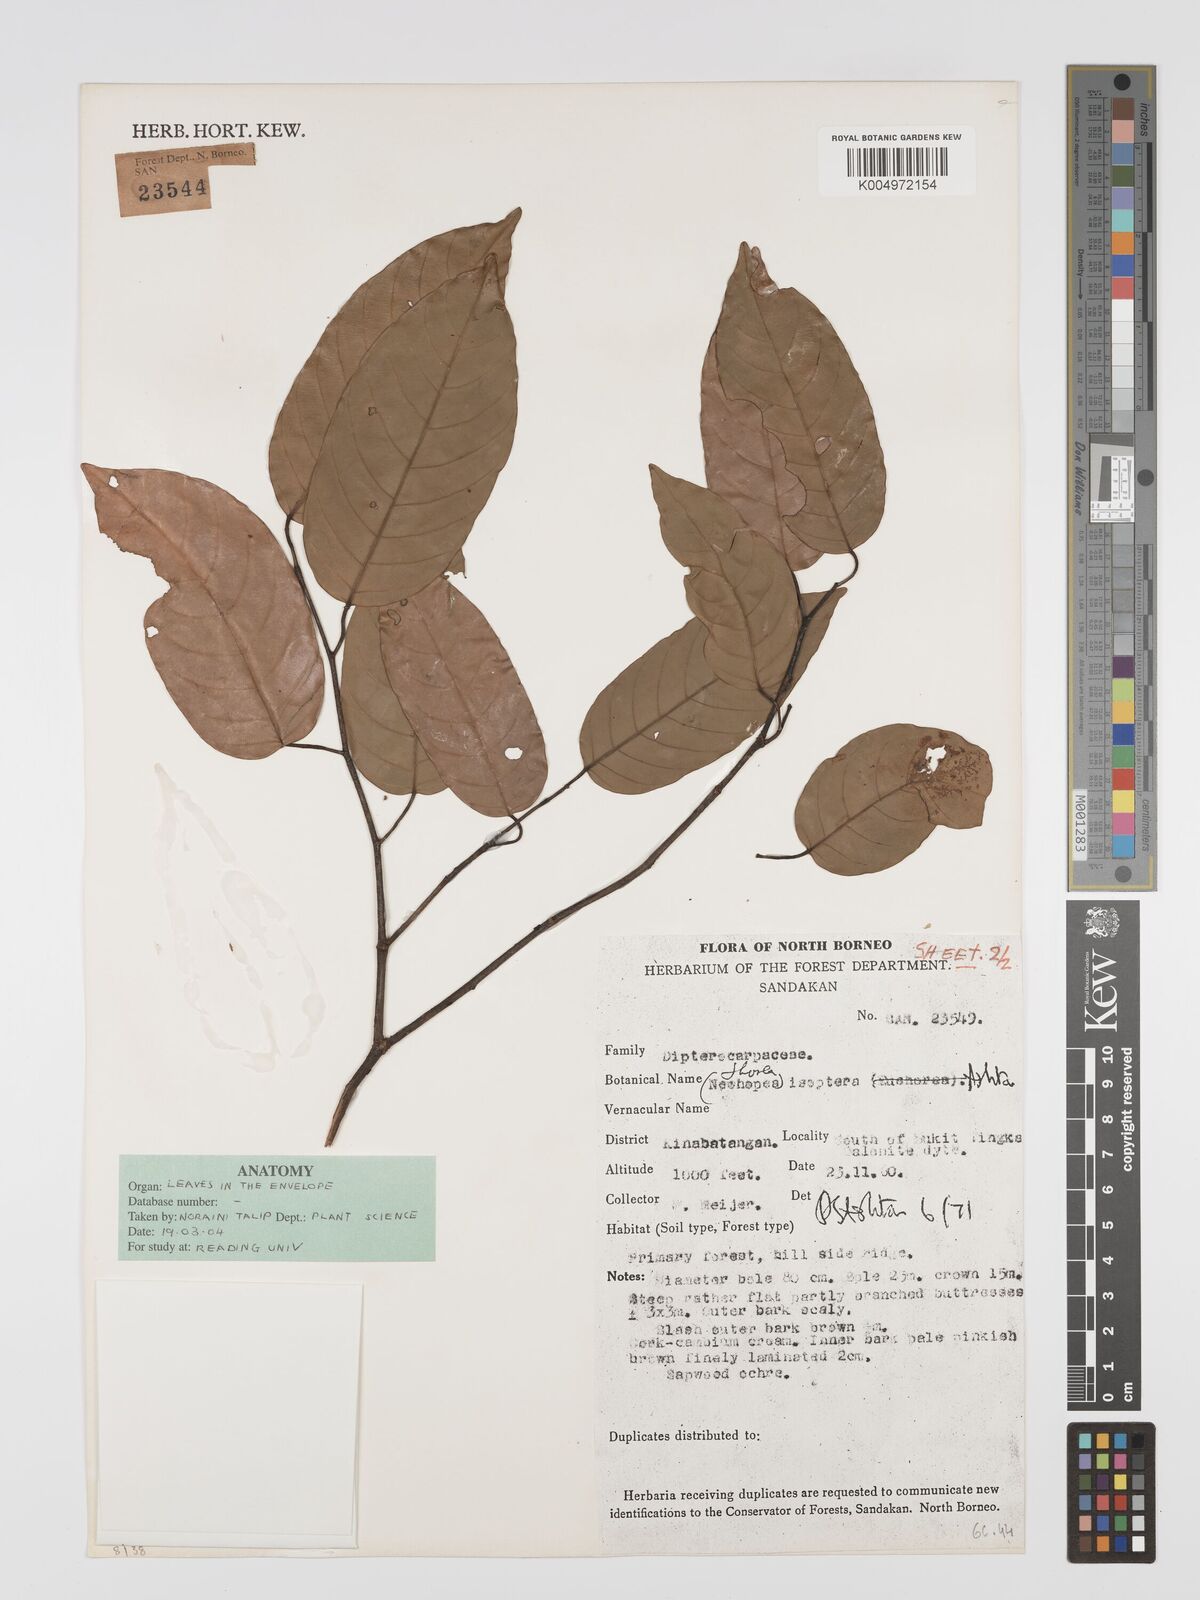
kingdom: Plantae
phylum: Tracheophyta
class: Magnoliopsida
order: Malvales
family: Dipterocarpaceae
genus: Neohopea
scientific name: Neohopea isoptera
